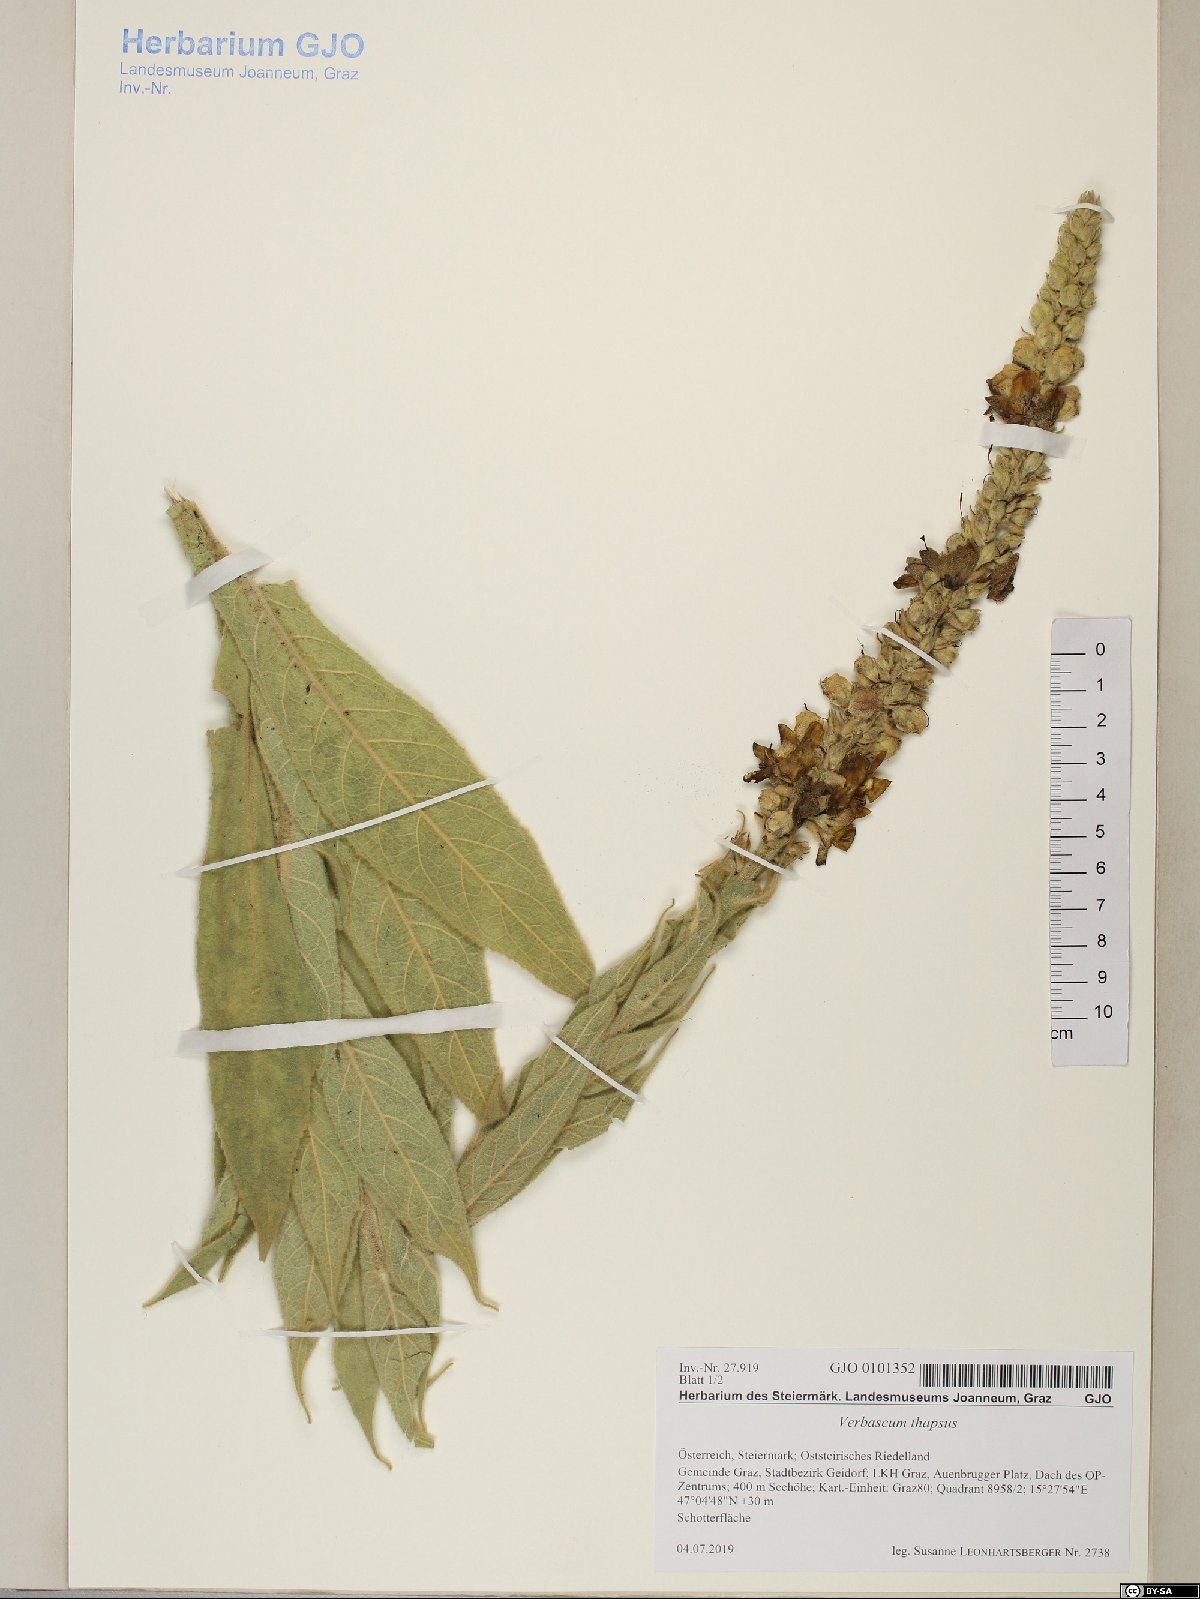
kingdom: Plantae
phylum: Tracheophyta
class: Magnoliopsida
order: Lamiales
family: Scrophulariaceae
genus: Verbascum
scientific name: Verbascum thapsus
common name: Common mullein
